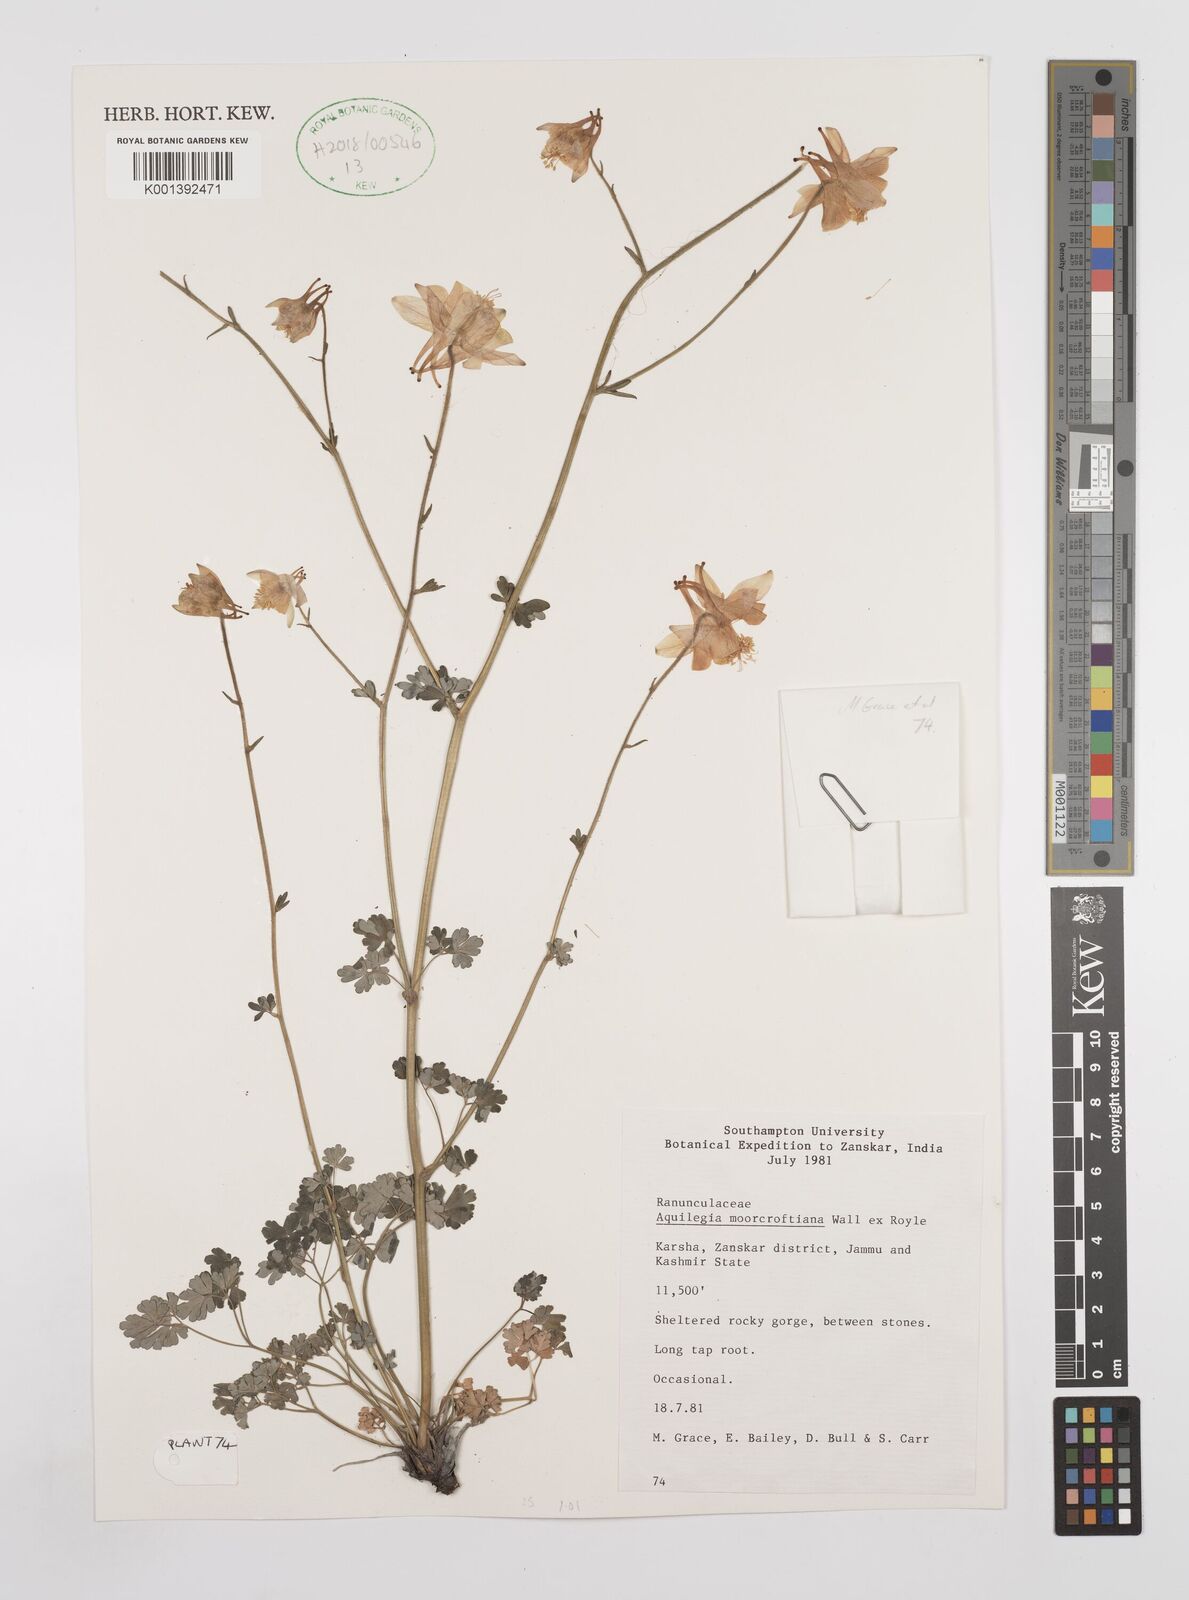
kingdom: Plantae
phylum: Tracheophyta
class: Magnoliopsida
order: Ranunculales
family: Ranunculaceae
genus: Aquilegia
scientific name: Aquilegia
